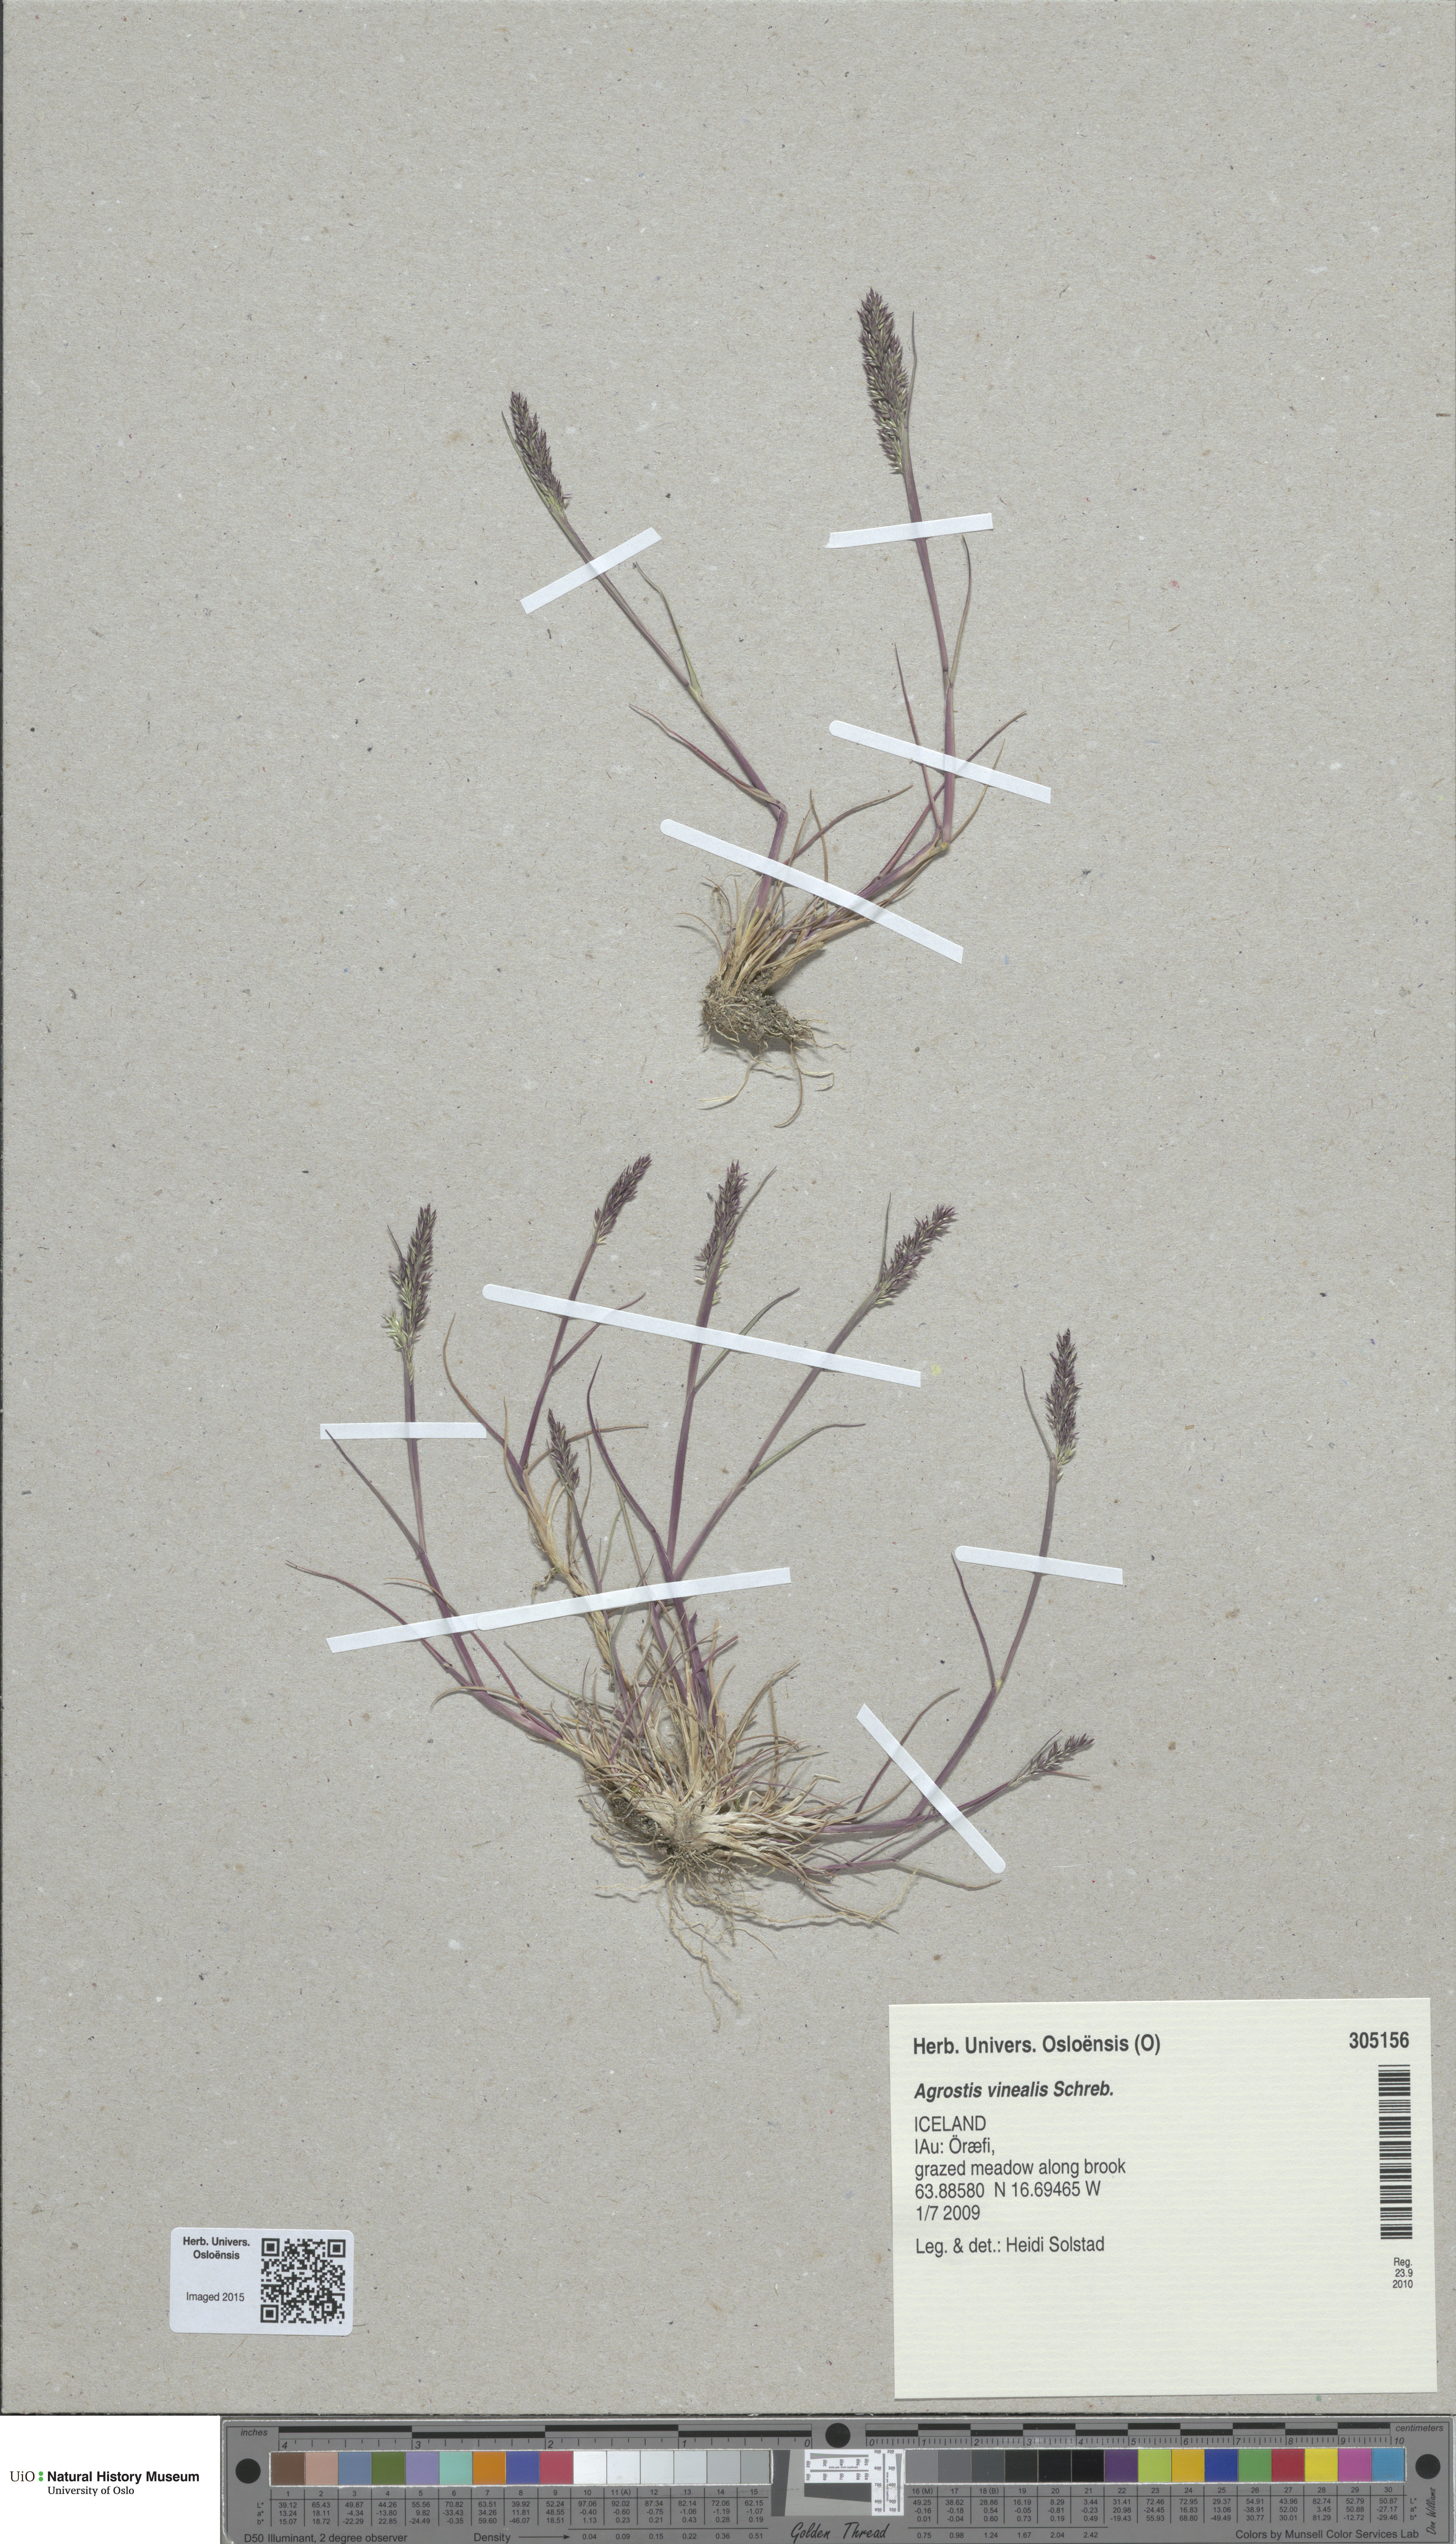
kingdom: Plantae
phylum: Tracheophyta
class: Liliopsida
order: Poales
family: Poaceae
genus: Agrostis
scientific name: Agrostis vinealis
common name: Brown bent
